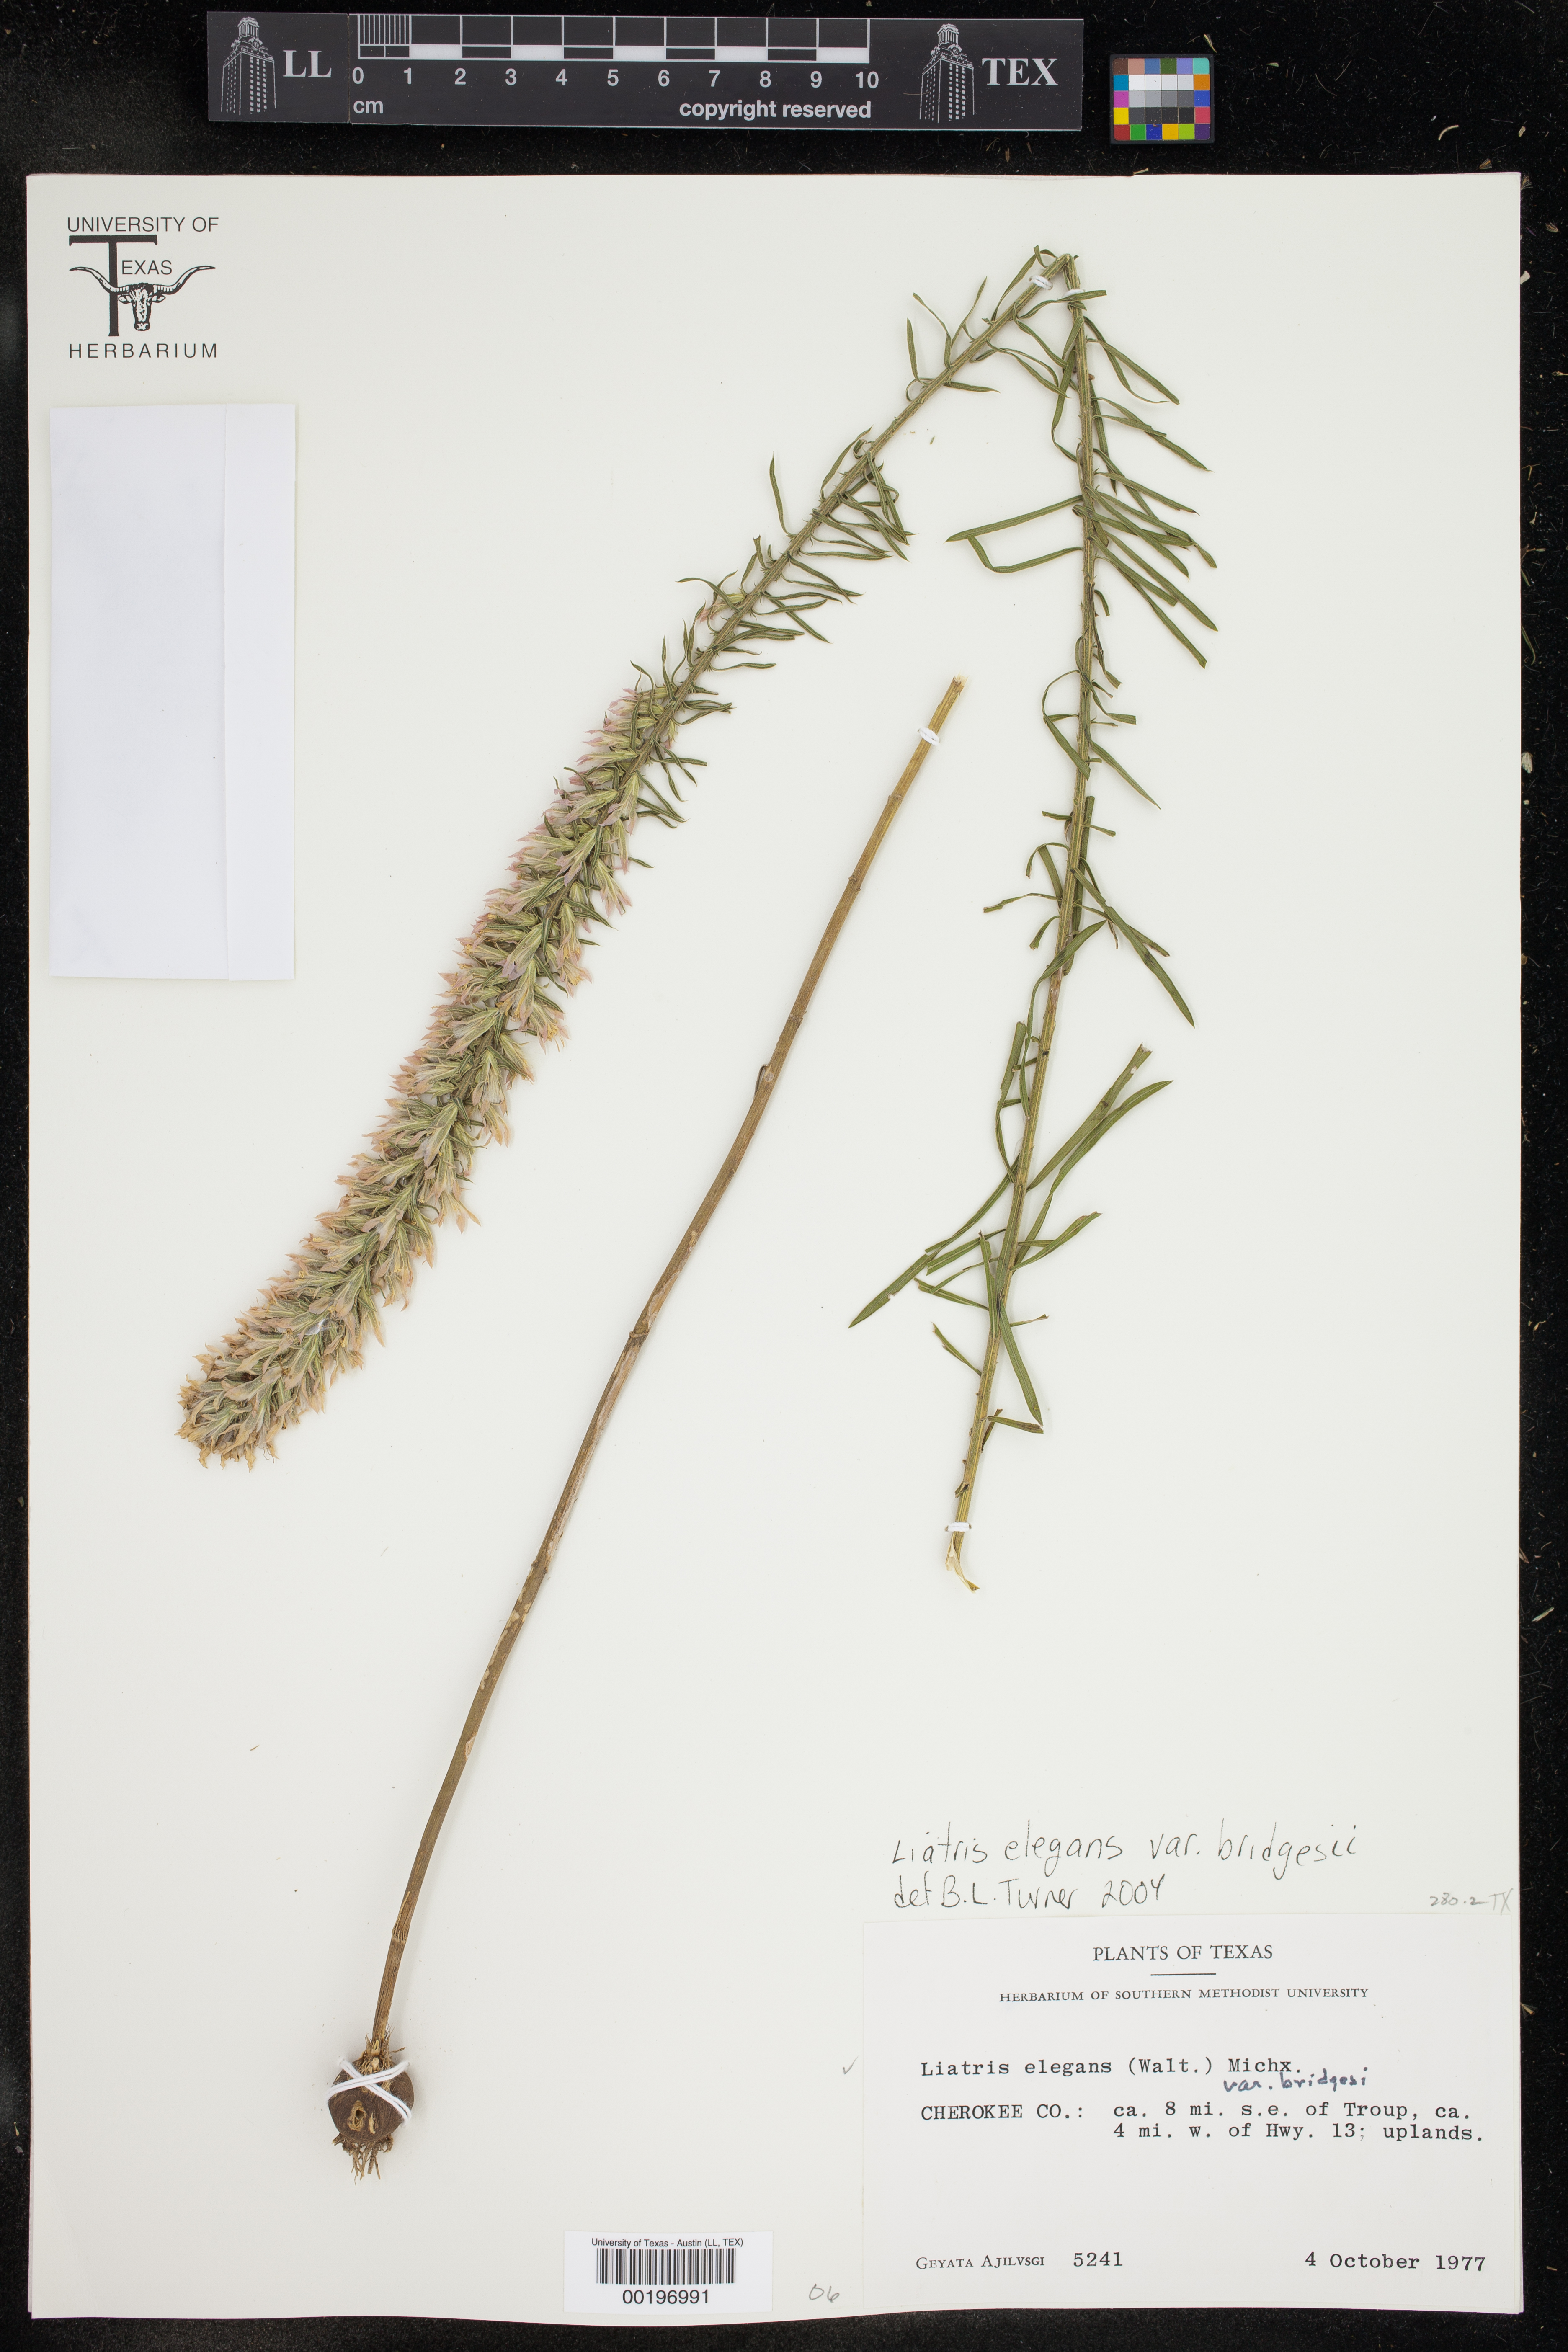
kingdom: Plantae
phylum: Tracheophyta
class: Magnoliopsida
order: Asterales
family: Asteraceae
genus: Liatris
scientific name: Liatris bridgesii
